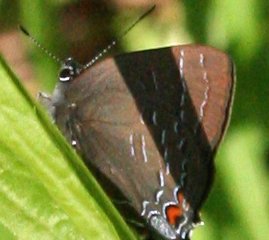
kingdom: Animalia
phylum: Arthropoda
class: Insecta
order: Lepidoptera
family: Lycaenidae
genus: Satyrium
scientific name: Satyrium calanus
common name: Banded Hairstreak
